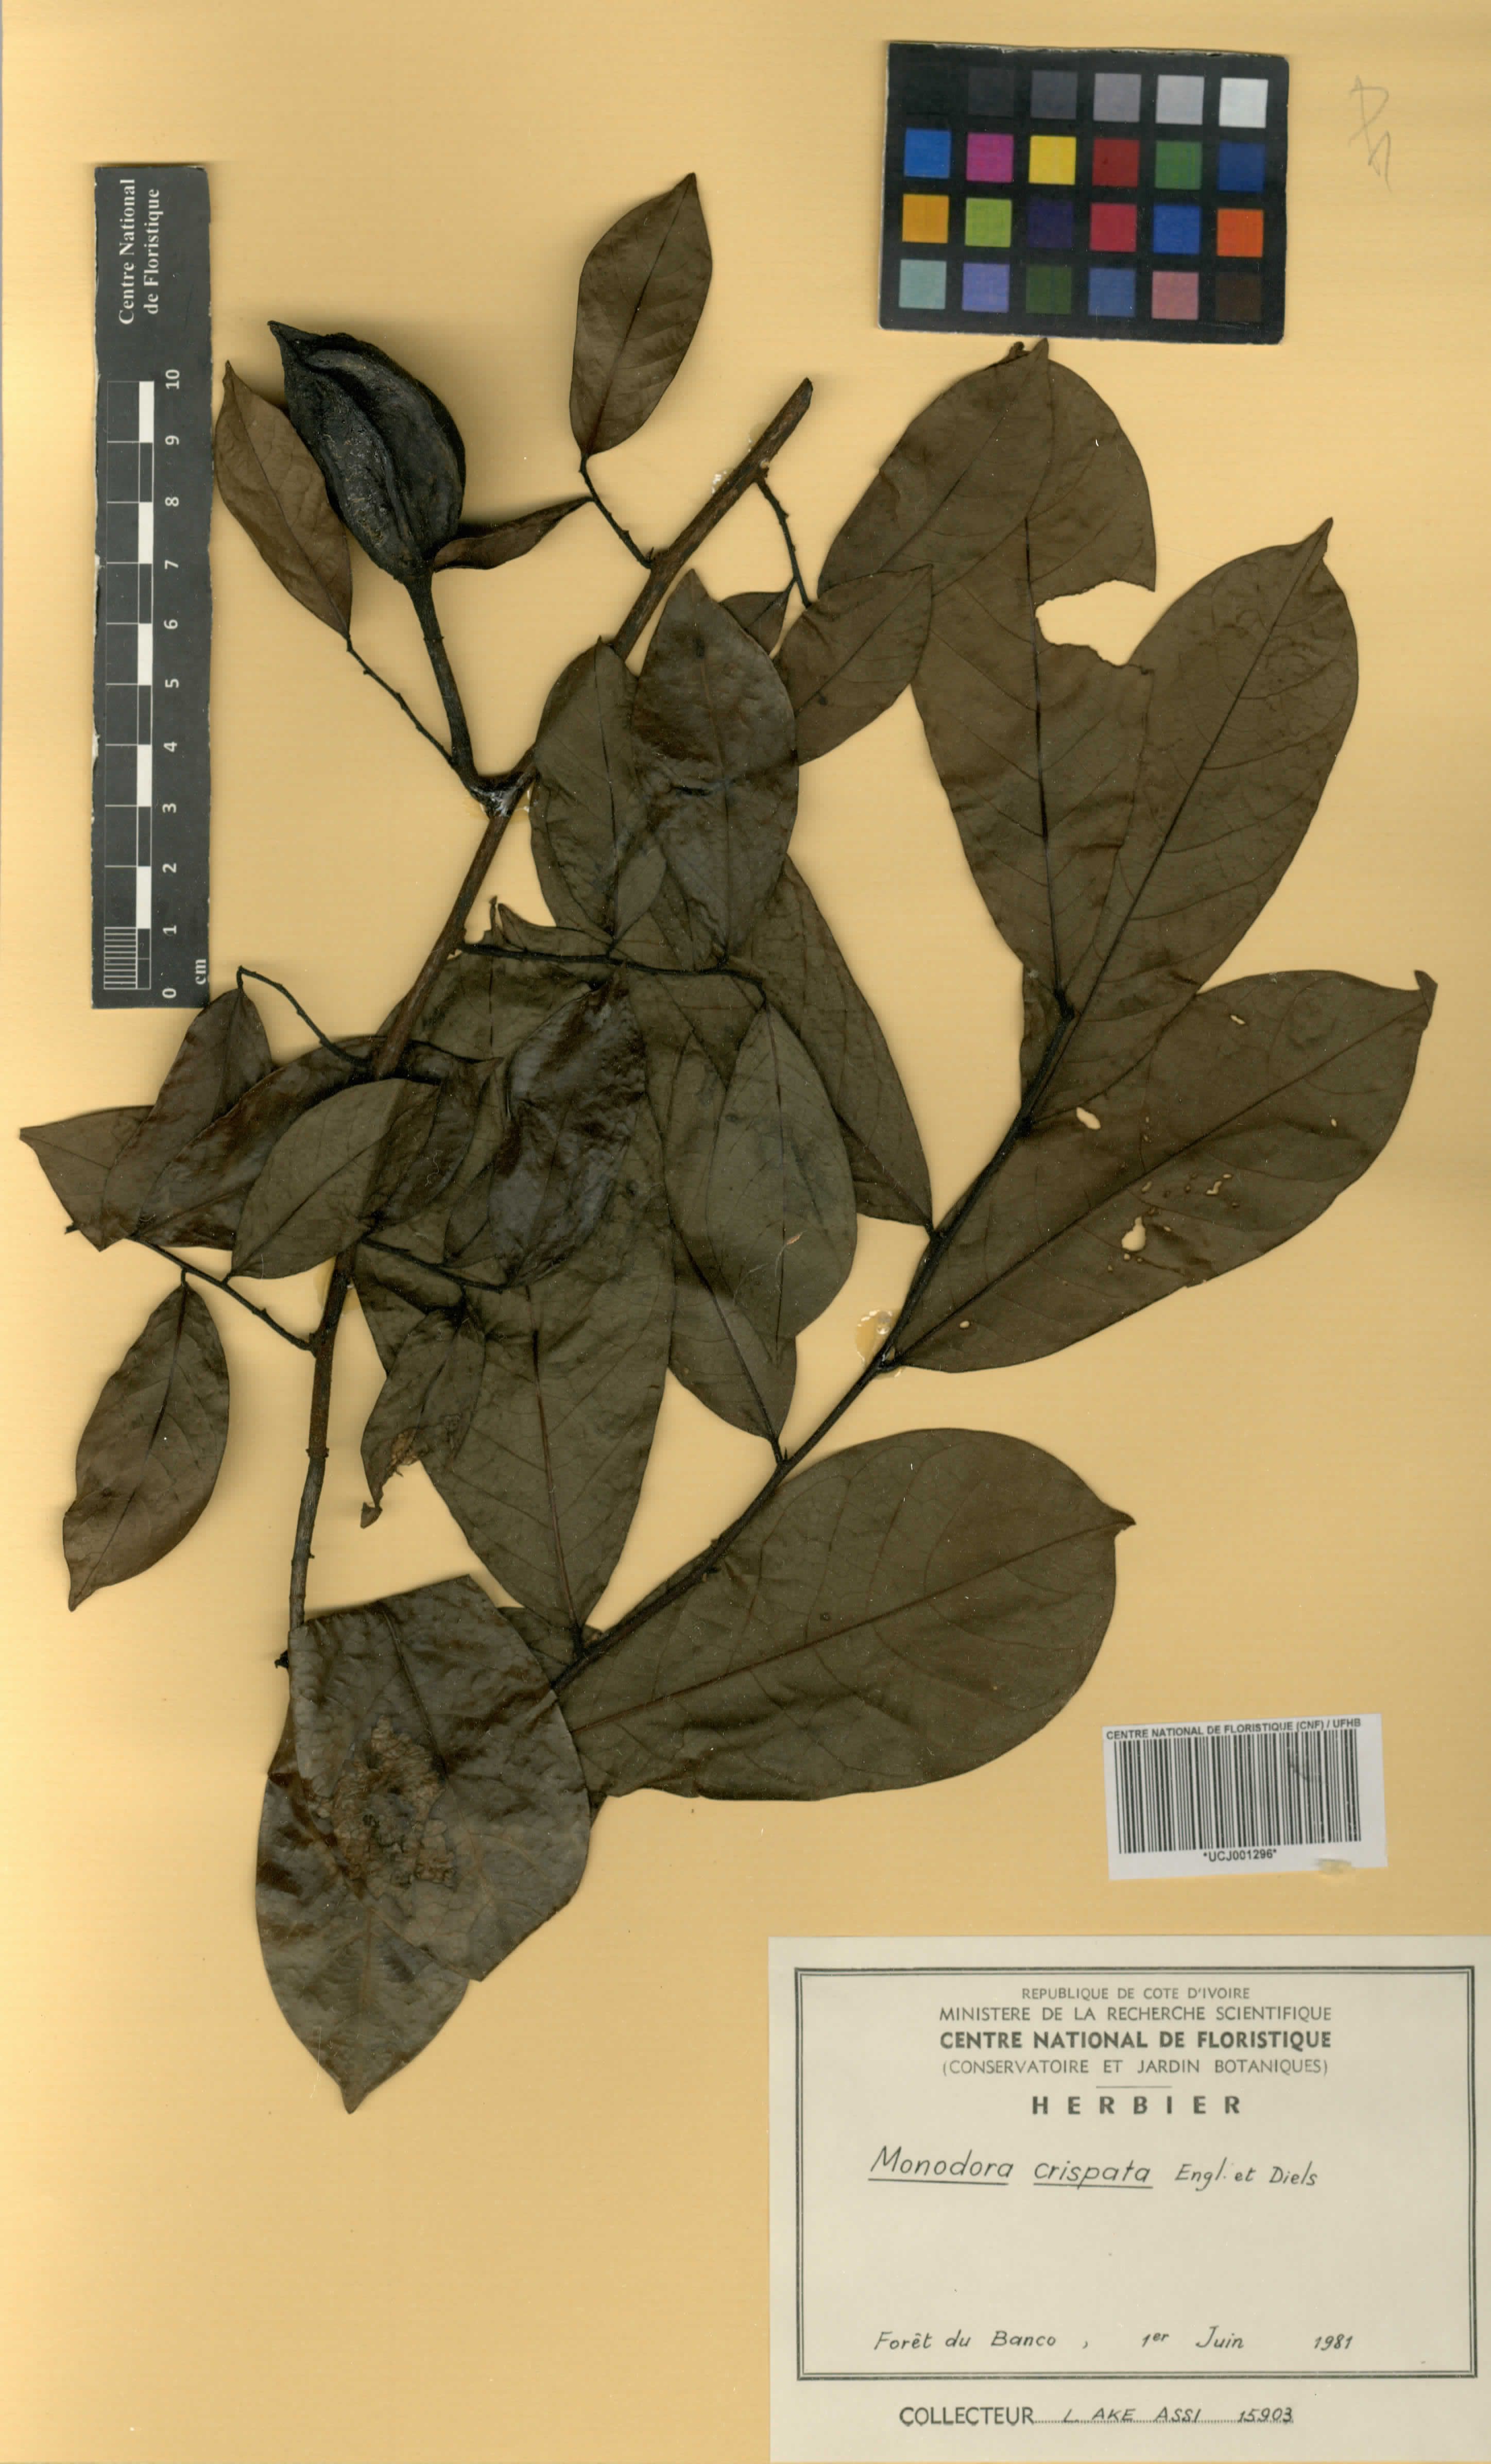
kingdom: Plantae
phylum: Tracheophyta
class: Magnoliopsida
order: Magnoliales
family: Annonaceae
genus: Monodora
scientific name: Monodora crispata
